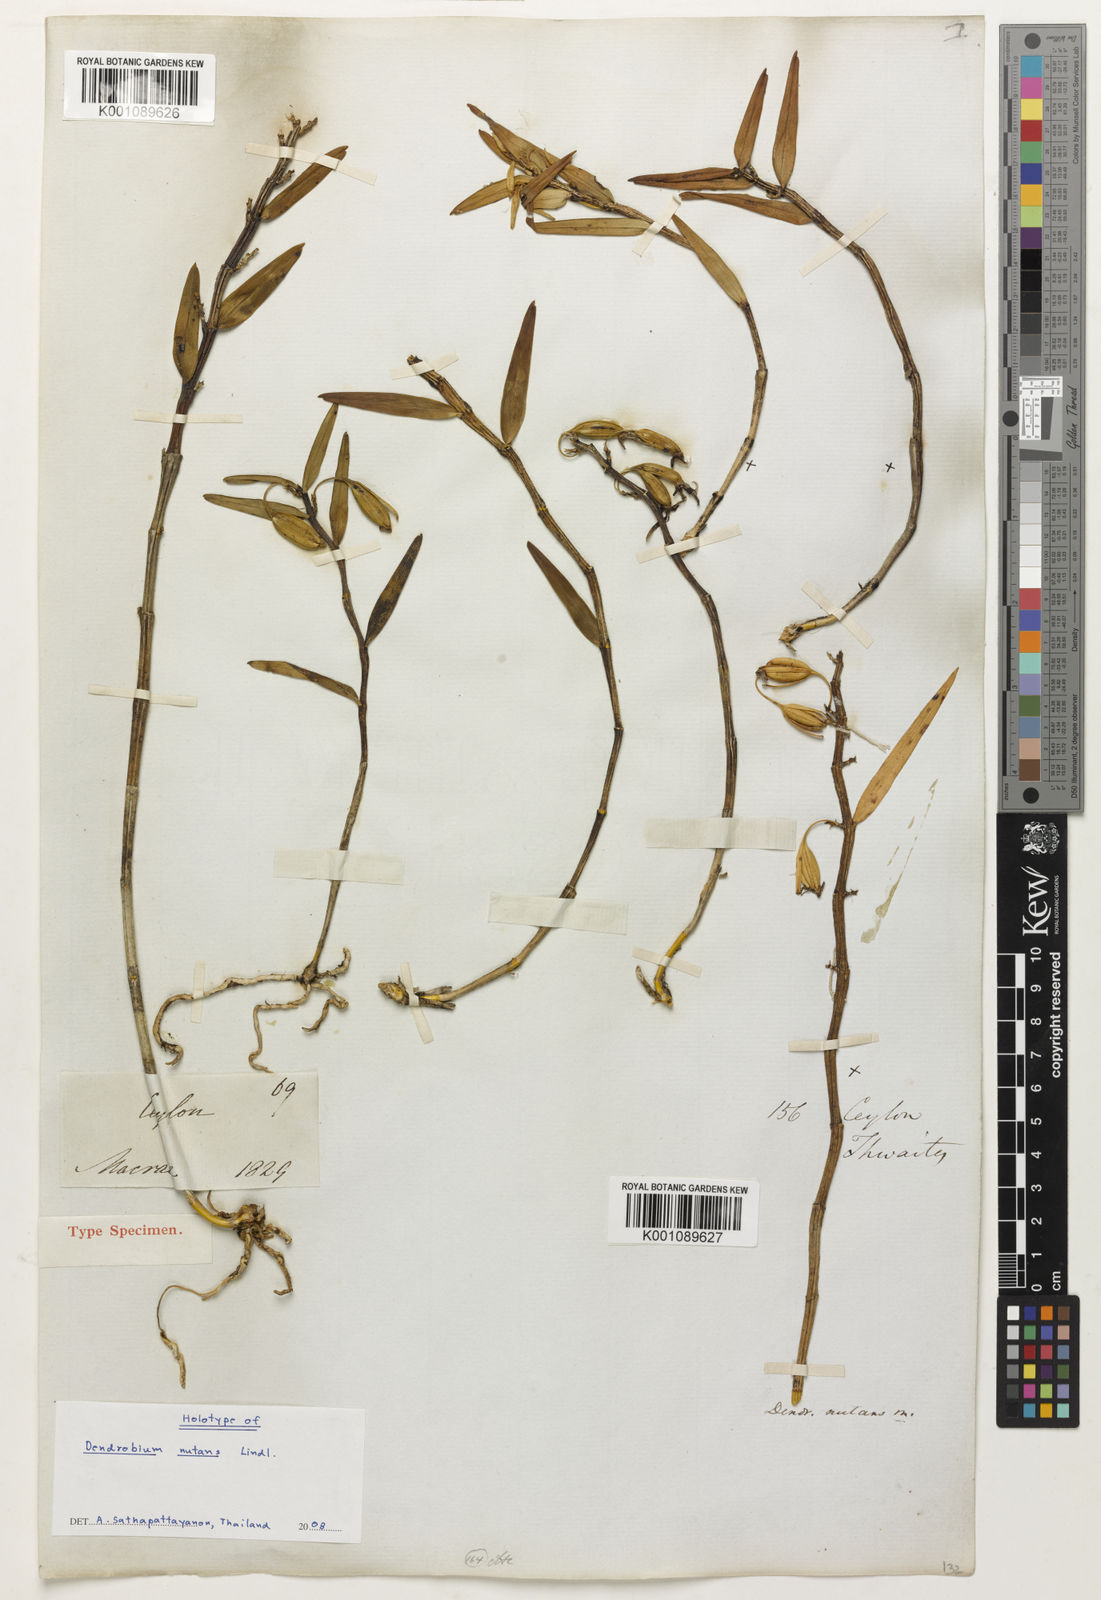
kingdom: Plantae
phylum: Tracheophyta
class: Liliopsida
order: Asparagales
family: Orchidaceae
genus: Dendrobium
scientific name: Dendrobium nutantiflorum
